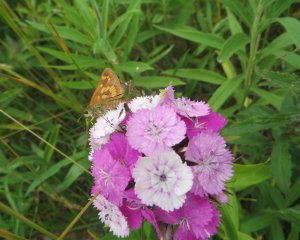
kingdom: Animalia
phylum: Arthropoda
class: Insecta
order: Lepidoptera
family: Hesperiidae
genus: Polites
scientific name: Polites
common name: Long Dash Skipper
